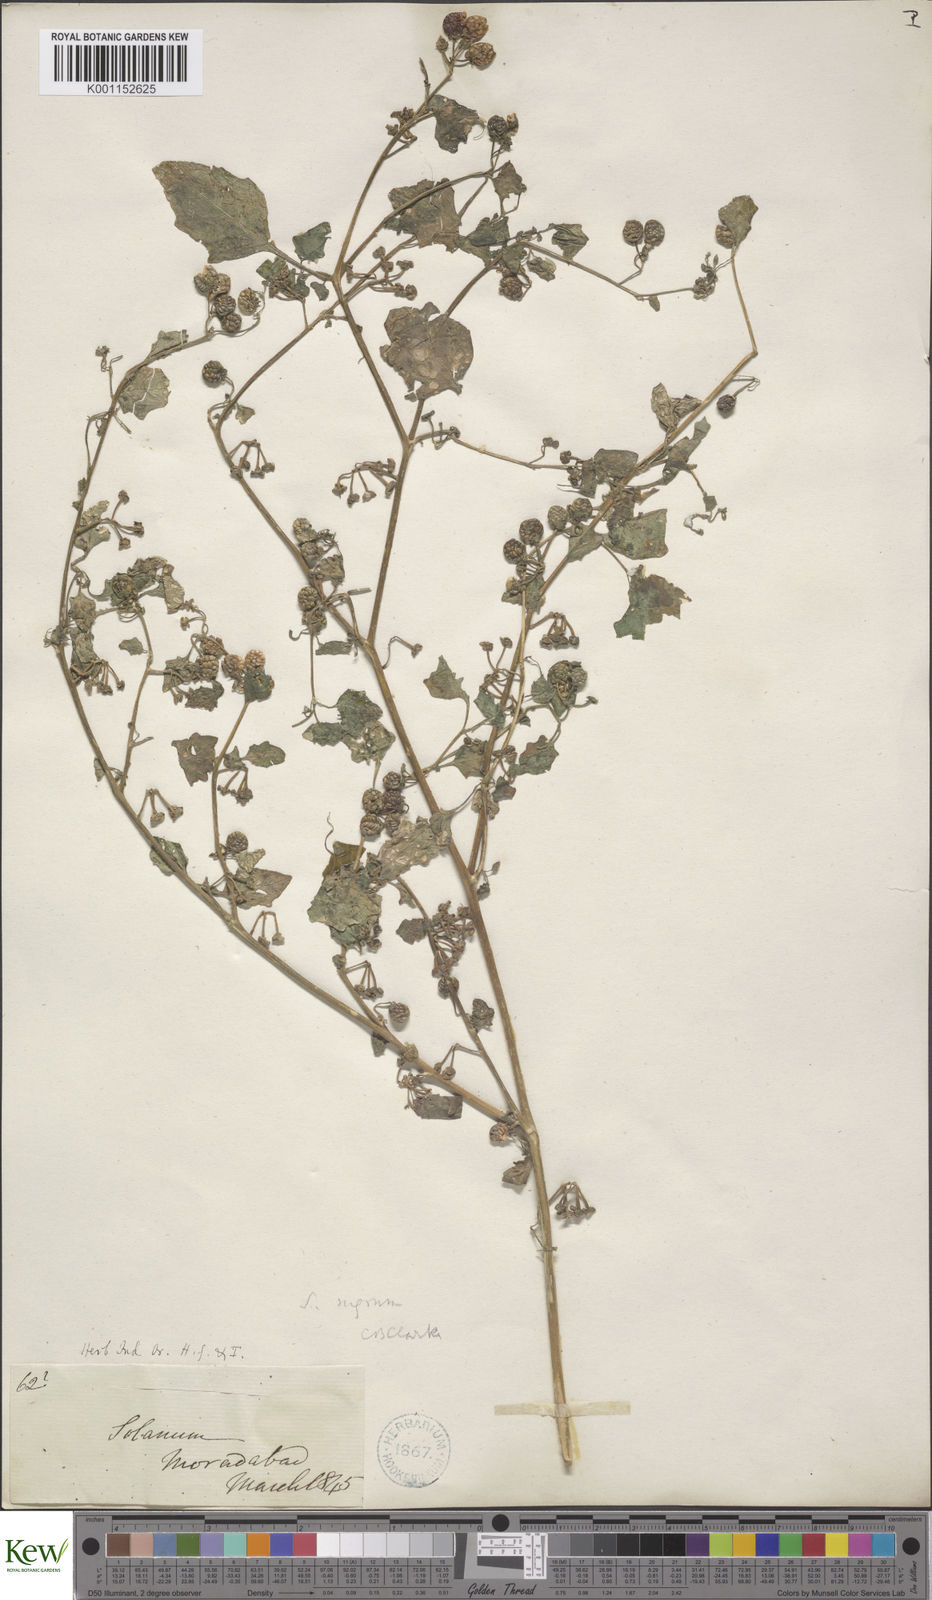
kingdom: Plantae
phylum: Tracheophyta
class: Magnoliopsida
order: Solanales
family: Solanaceae
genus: Solanum
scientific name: Solanum nigrum
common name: Black nightshade
